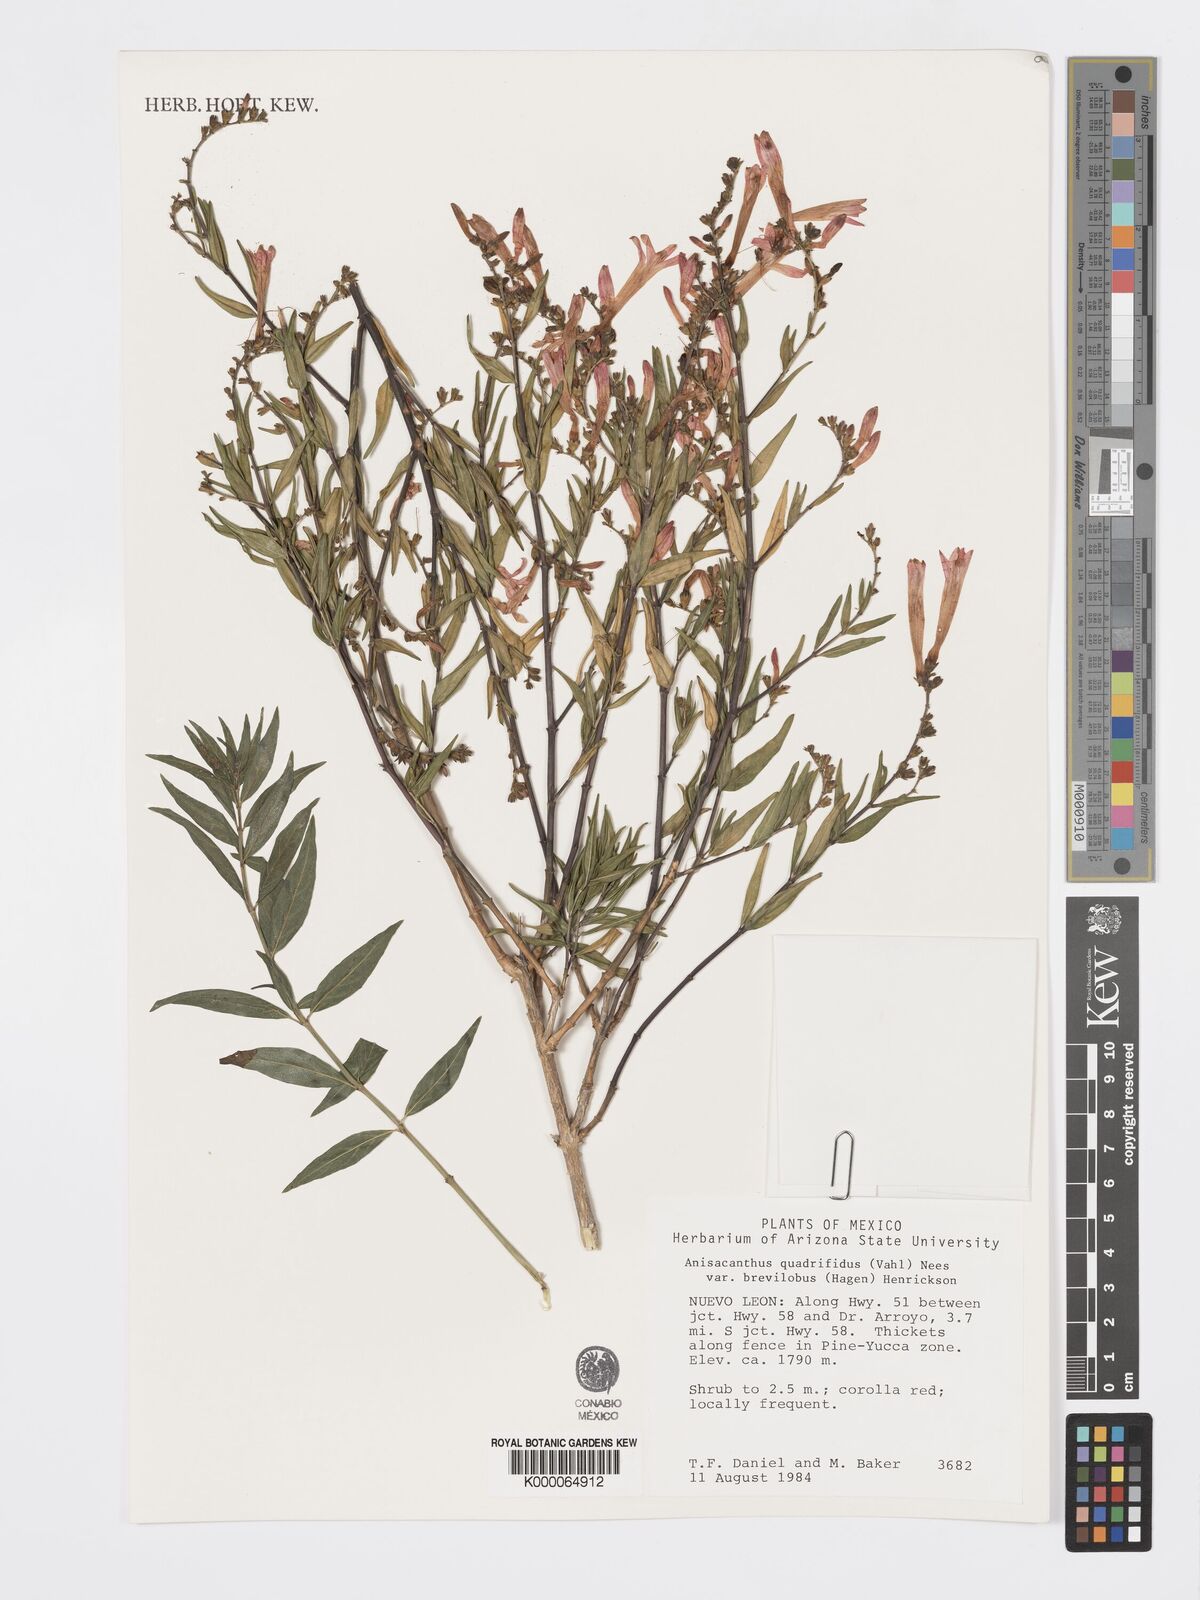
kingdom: Plantae
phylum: Tracheophyta
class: Magnoliopsida
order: Lamiales
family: Acanthaceae
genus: Anisacanthus
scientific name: Anisacanthus quadrifidus
